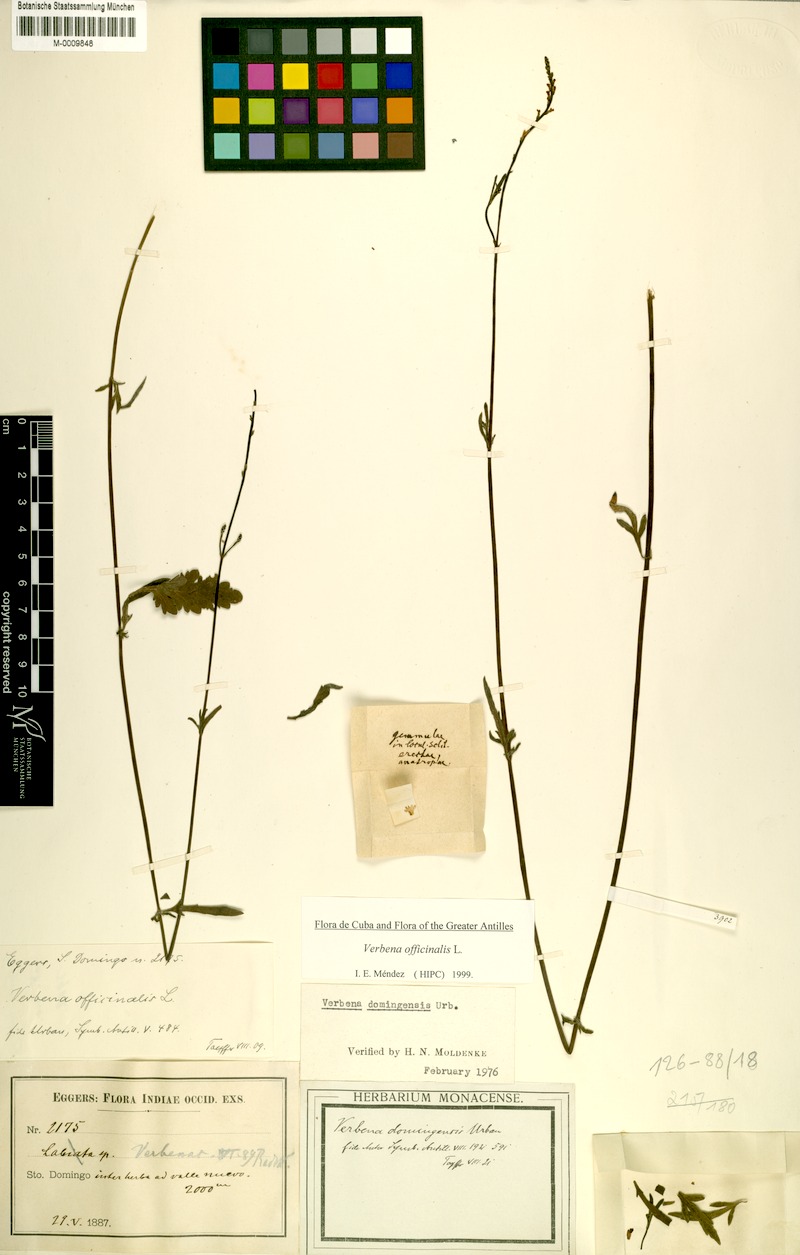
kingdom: Plantae
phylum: Tracheophyta
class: Magnoliopsida
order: Lamiales
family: Verbenaceae
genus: Verbena
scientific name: Verbena officinalis
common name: Vervain
